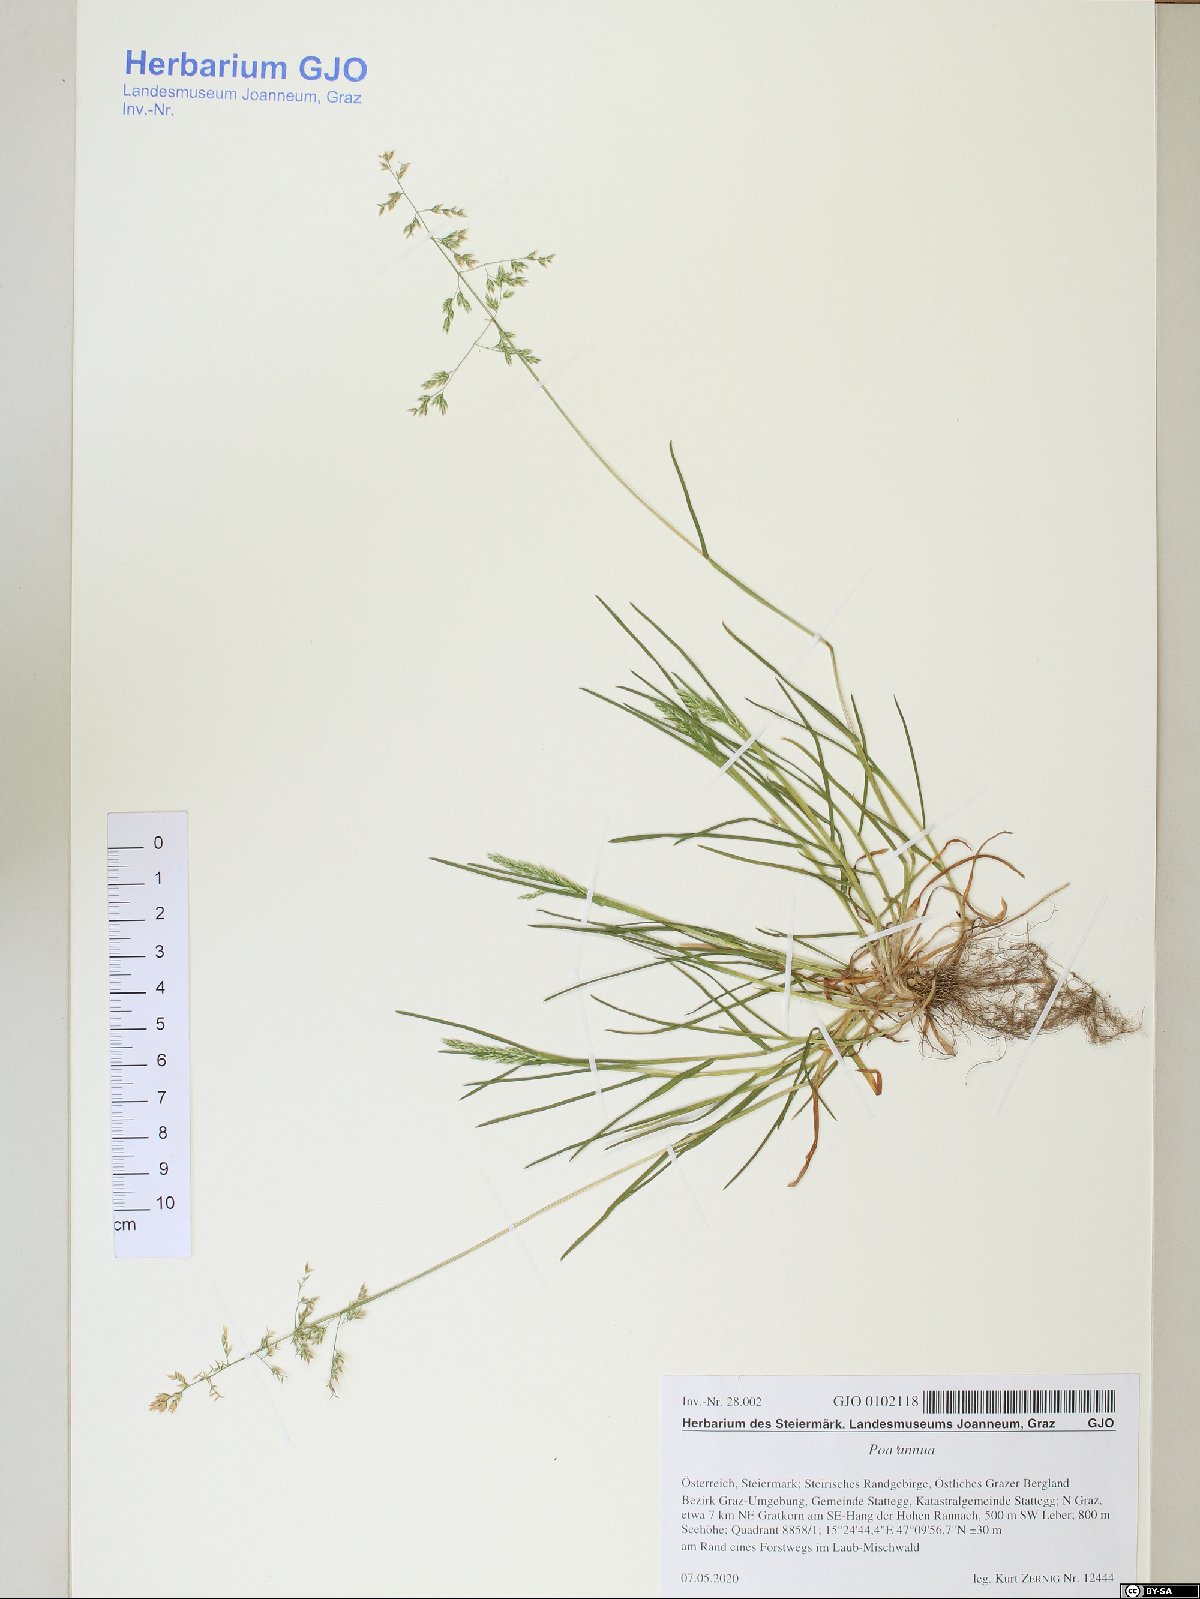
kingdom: Plantae
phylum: Tracheophyta
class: Liliopsida
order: Poales
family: Poaceae
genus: Poa
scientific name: Poa annua
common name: Annual bluegrass
